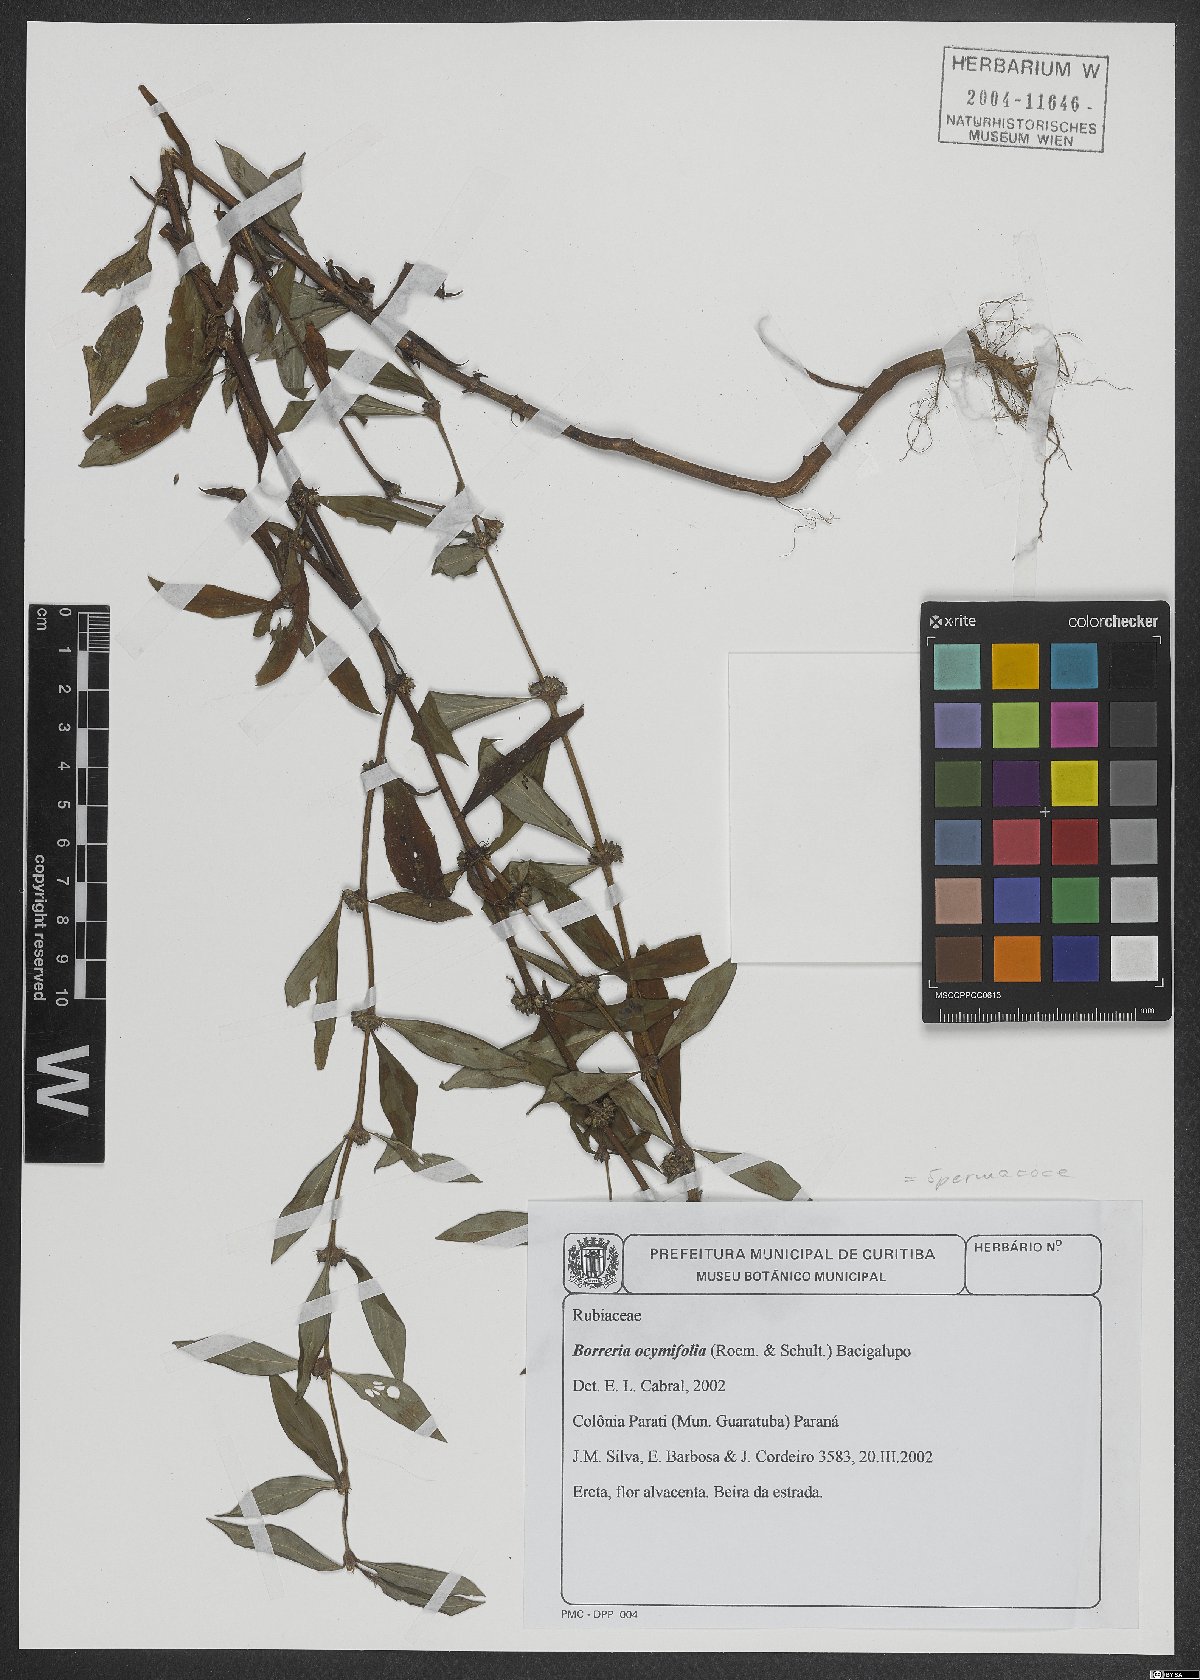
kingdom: Plantae
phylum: Tracheophyta
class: Magnoliopsida
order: Gentianales
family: Rubiaceae
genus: Spermacoce
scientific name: Spermacoce ocymoides
